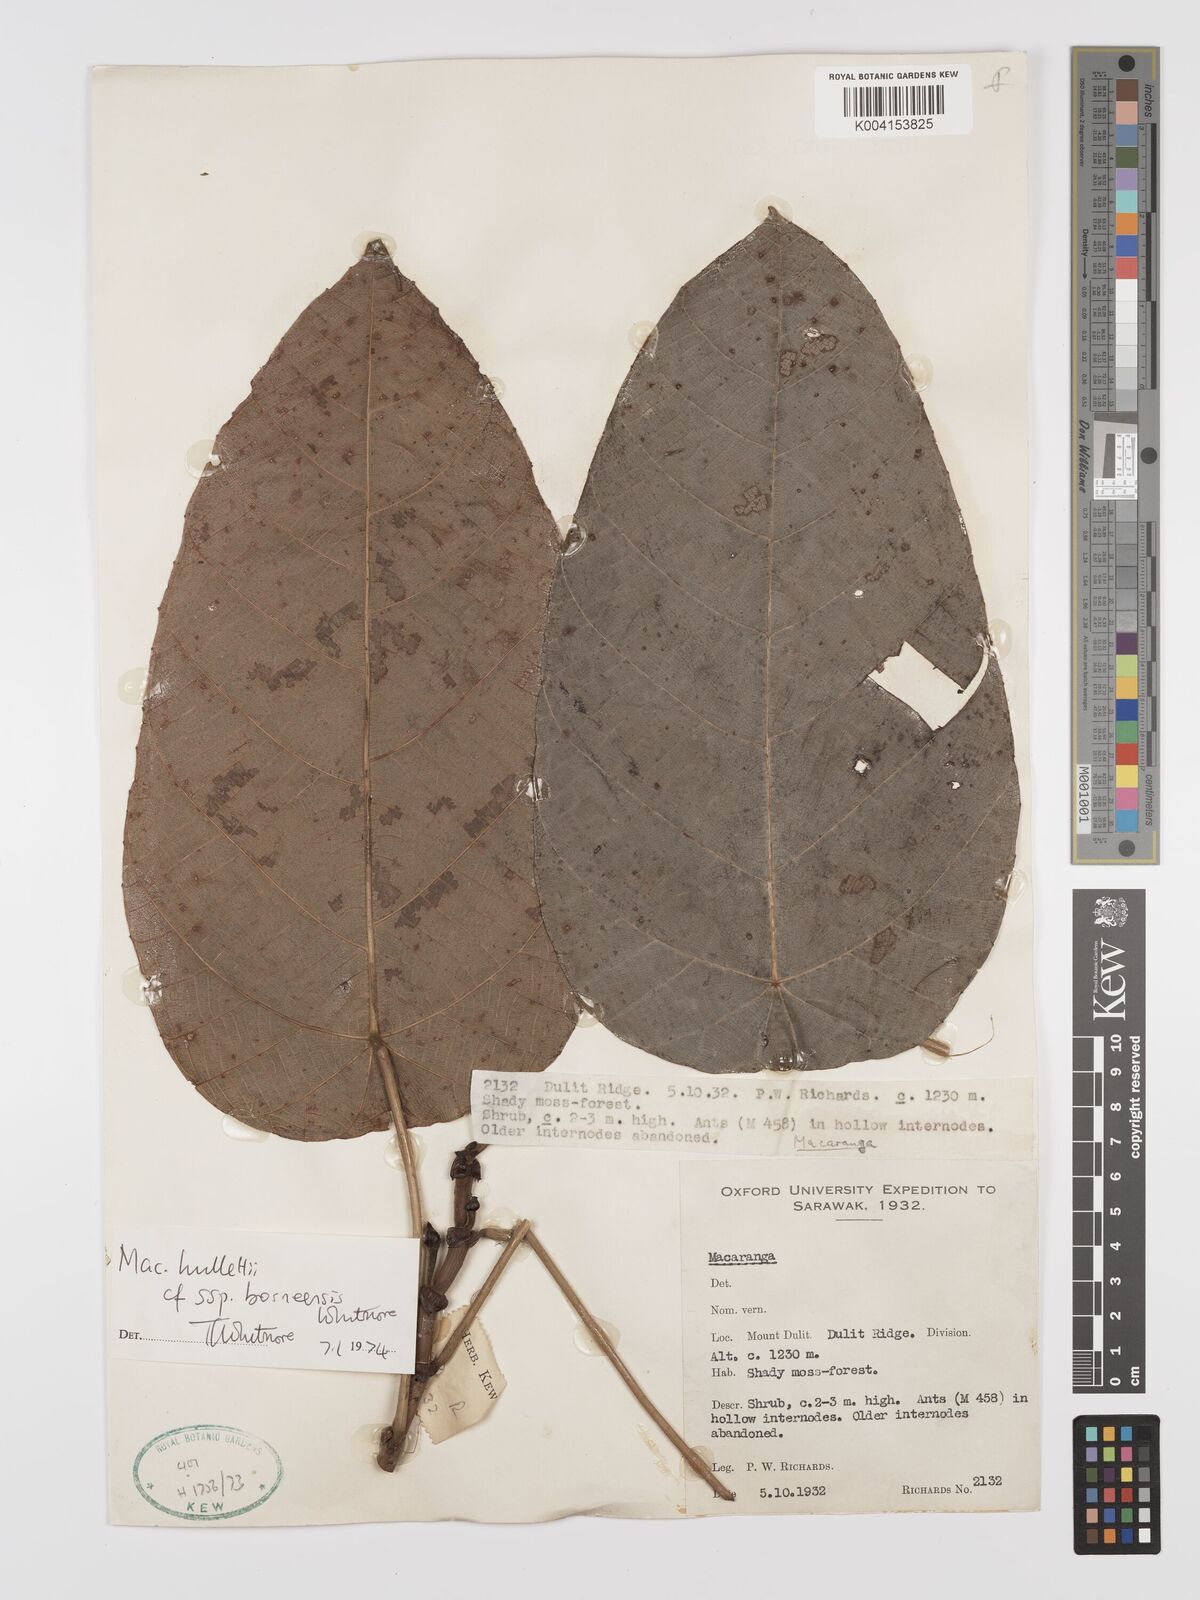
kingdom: Plantae
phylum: Tracheophyta
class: Magnoliopsida
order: Malpighiales
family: Euphorbiaceae
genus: Macaranga
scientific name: Macaranga hullettii
